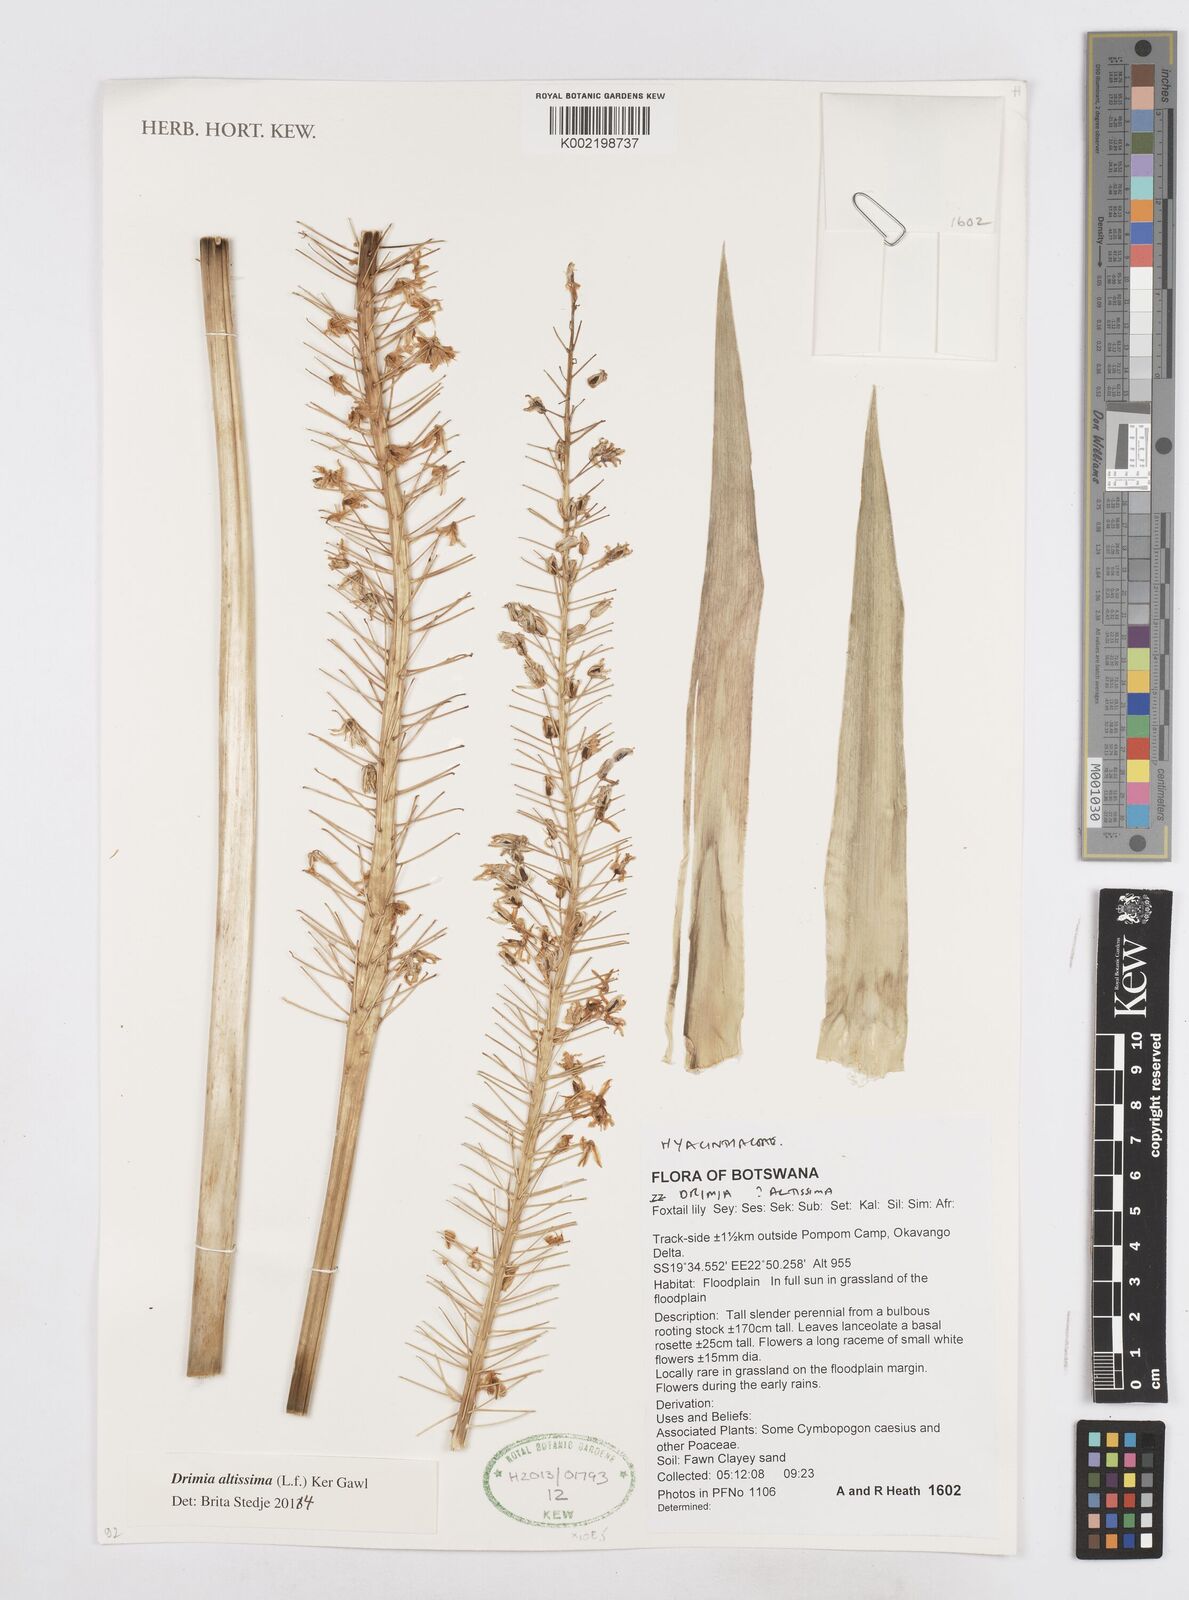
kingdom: Plantae
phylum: Tracheophyta
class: Liliopsida
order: Asparagales
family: Asparagaceae
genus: Drimia
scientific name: Drimia altissima
